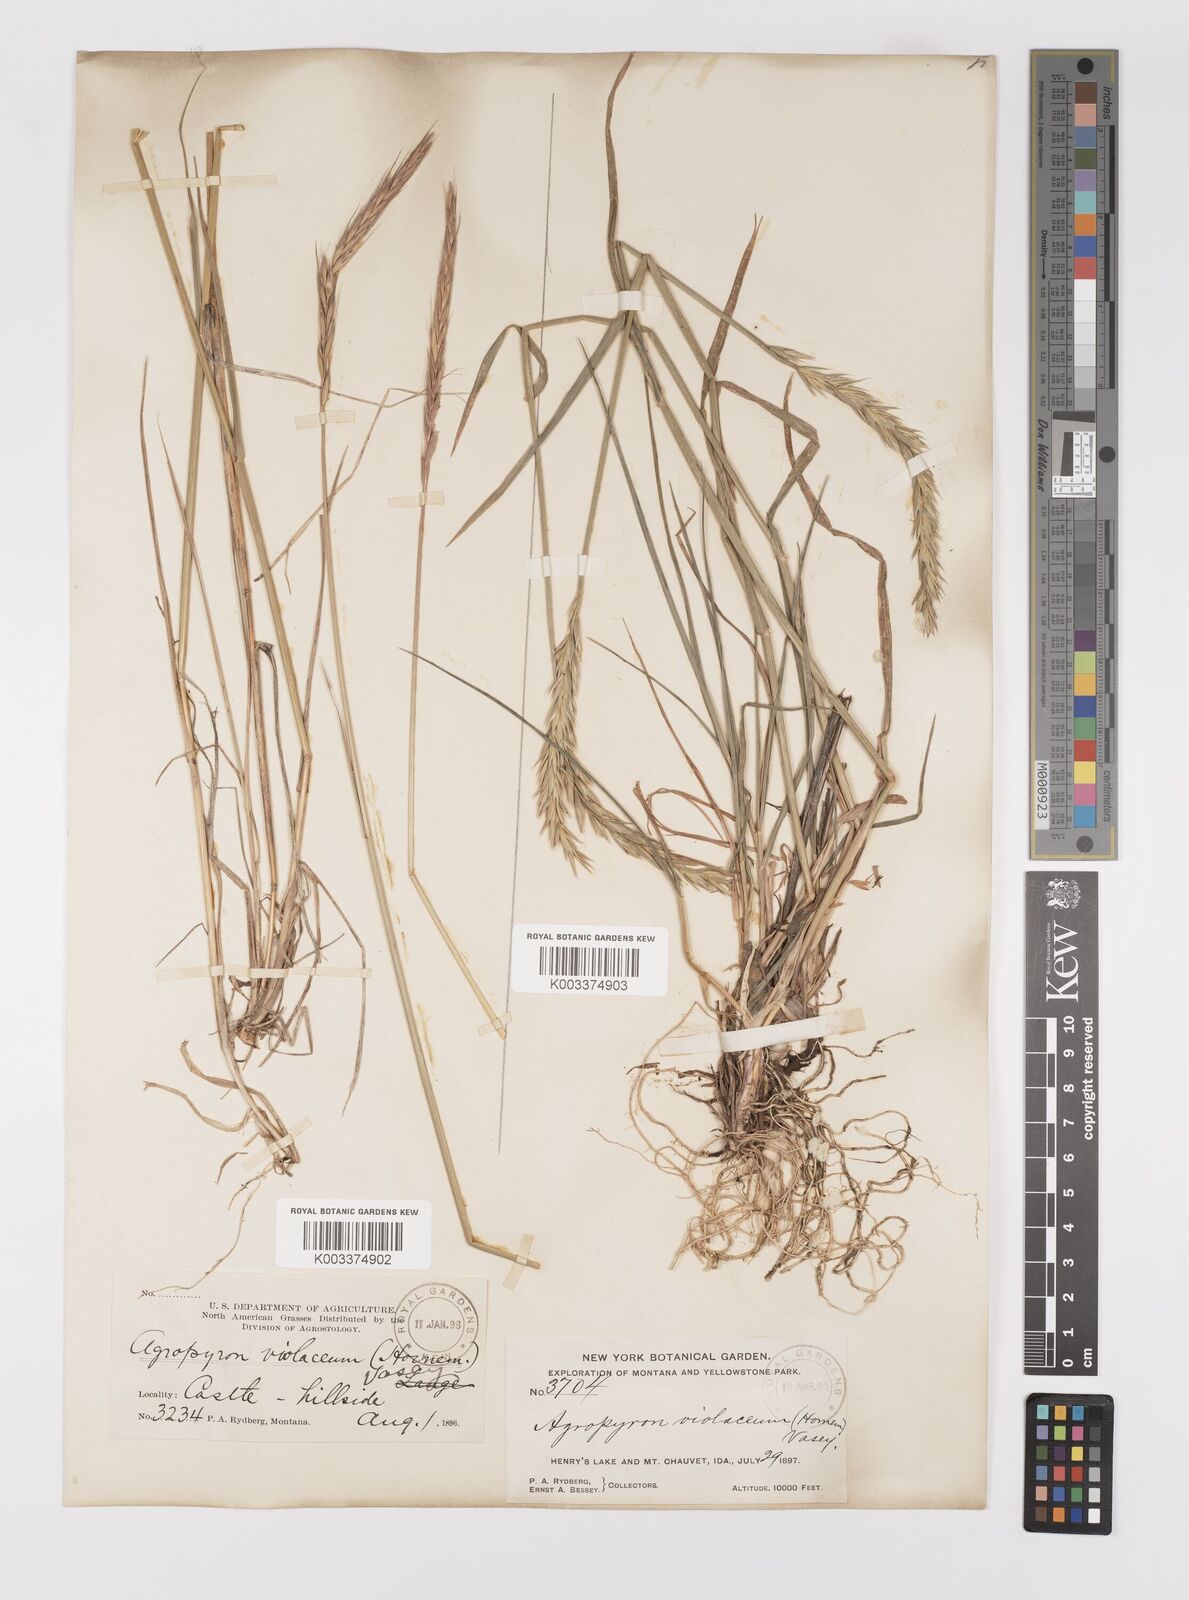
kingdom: Plantae
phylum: Tracheophyta
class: Liliopsida
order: Poales
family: Poaceae
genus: Elymus
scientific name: Elymus violaceus
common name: Arctic wheatgrass
